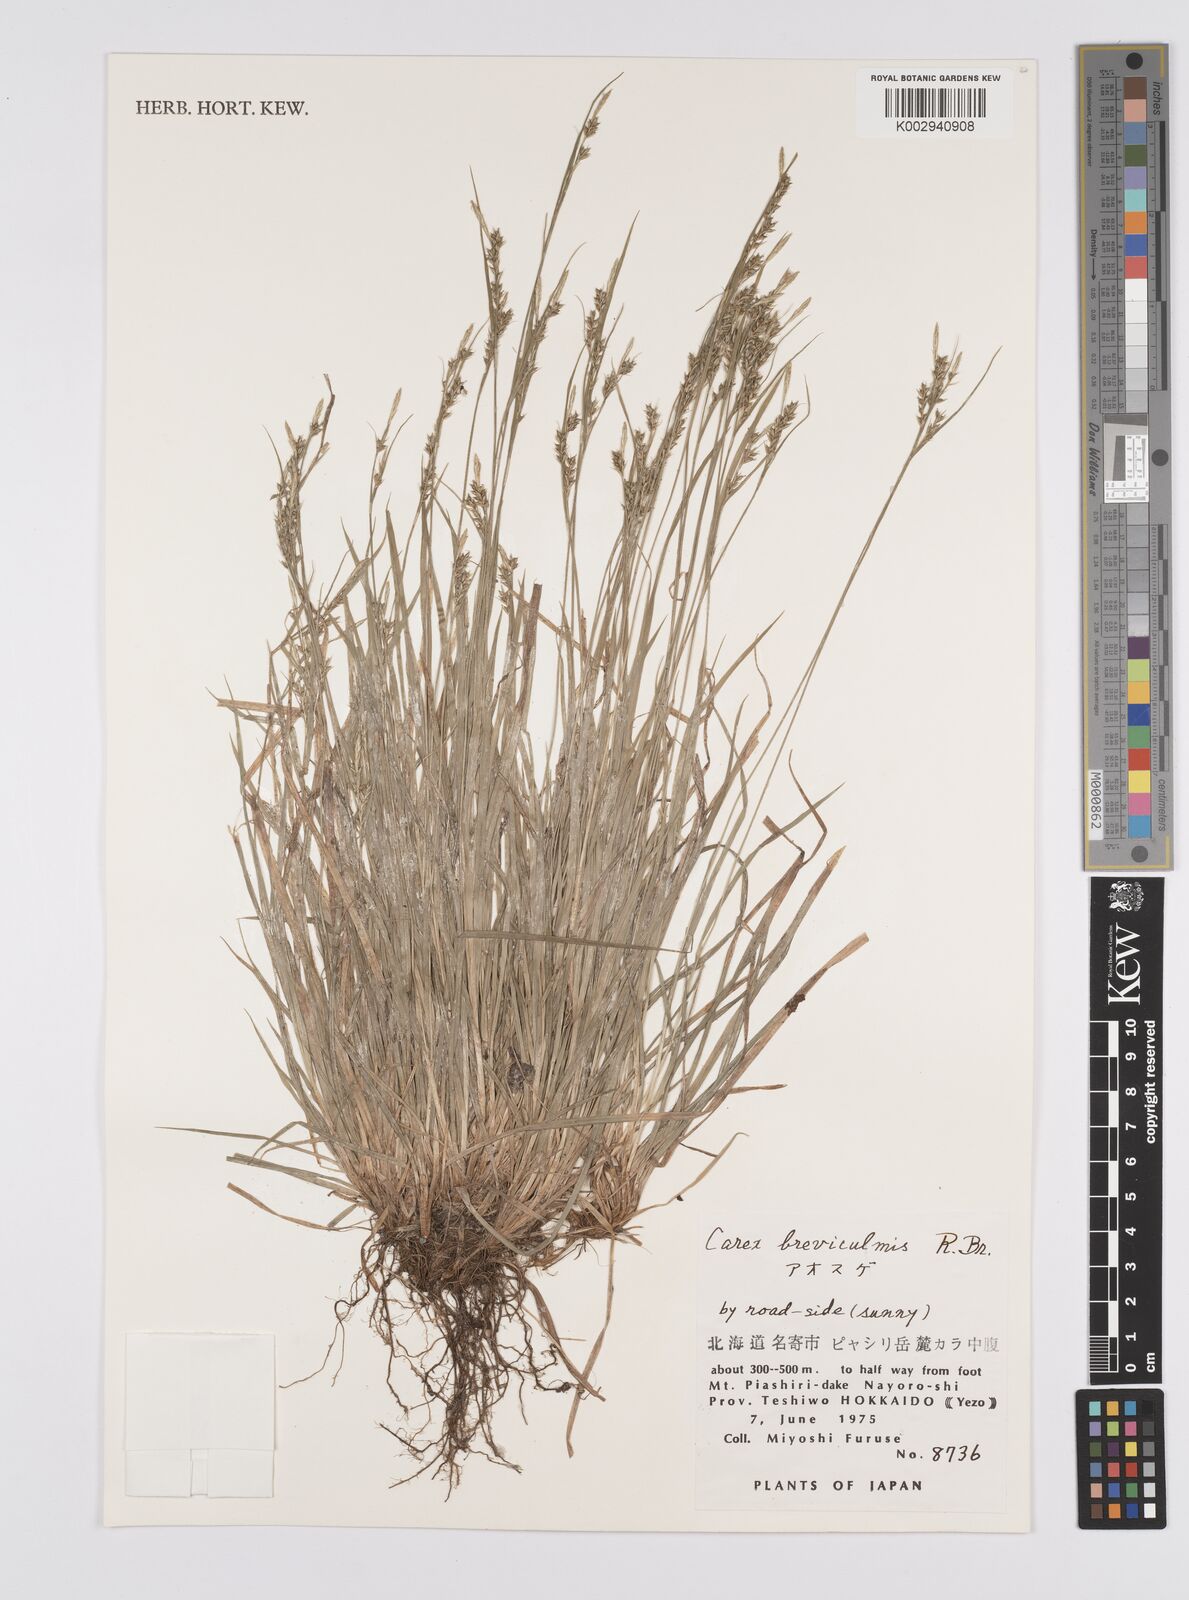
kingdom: Plantae
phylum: Tracheophyta
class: Liliopsida
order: Poales
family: Cyperaceae
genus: Carex
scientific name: Carex breviculmis
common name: Asian shortstem sedge
